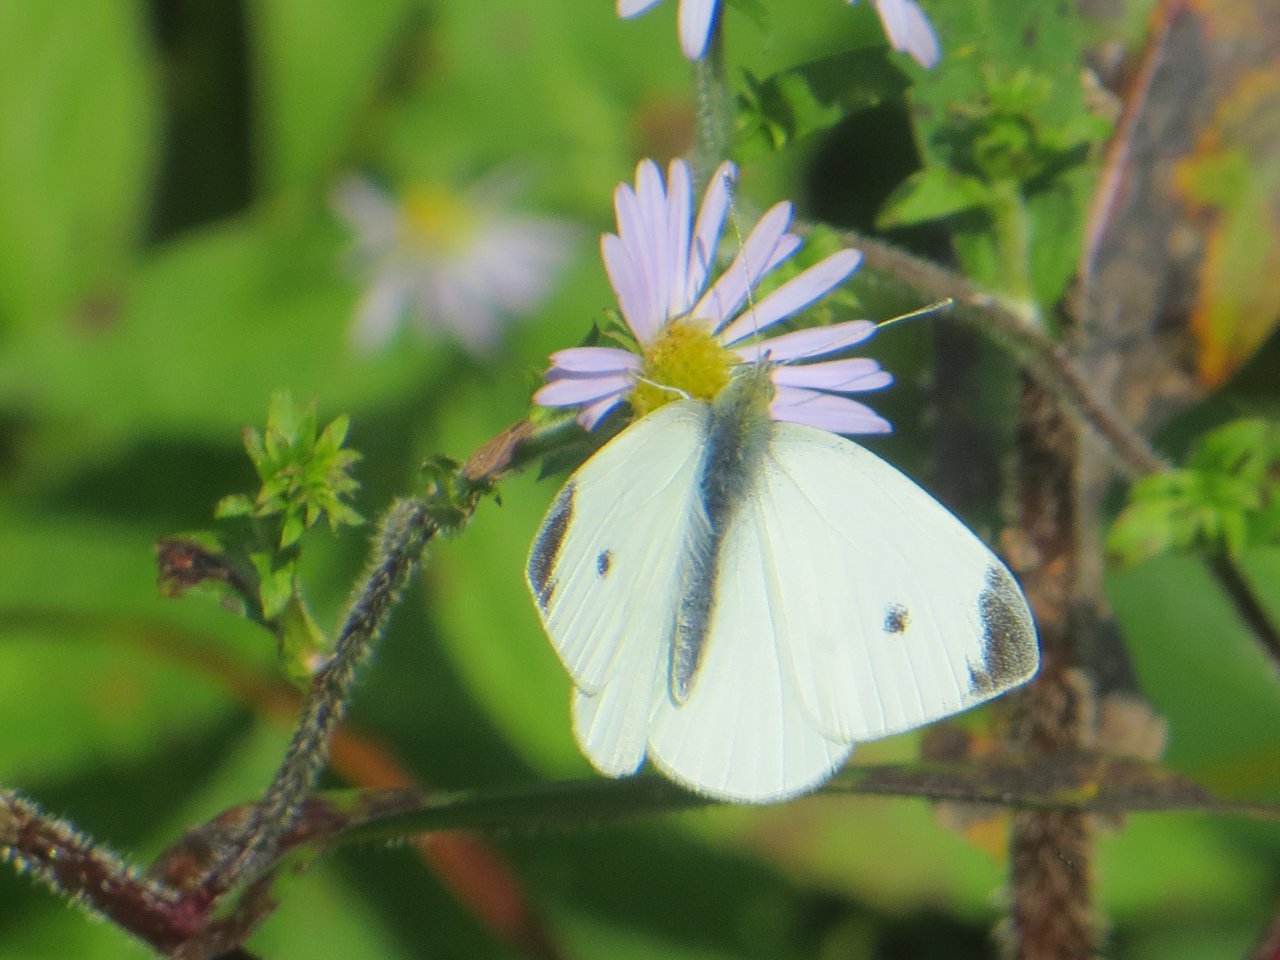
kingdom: Animalia
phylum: Arthropoda
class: Insecta
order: Lepidoptera
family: Pieridae
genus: Pieris
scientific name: Pieris rapae
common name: Cabbage White
